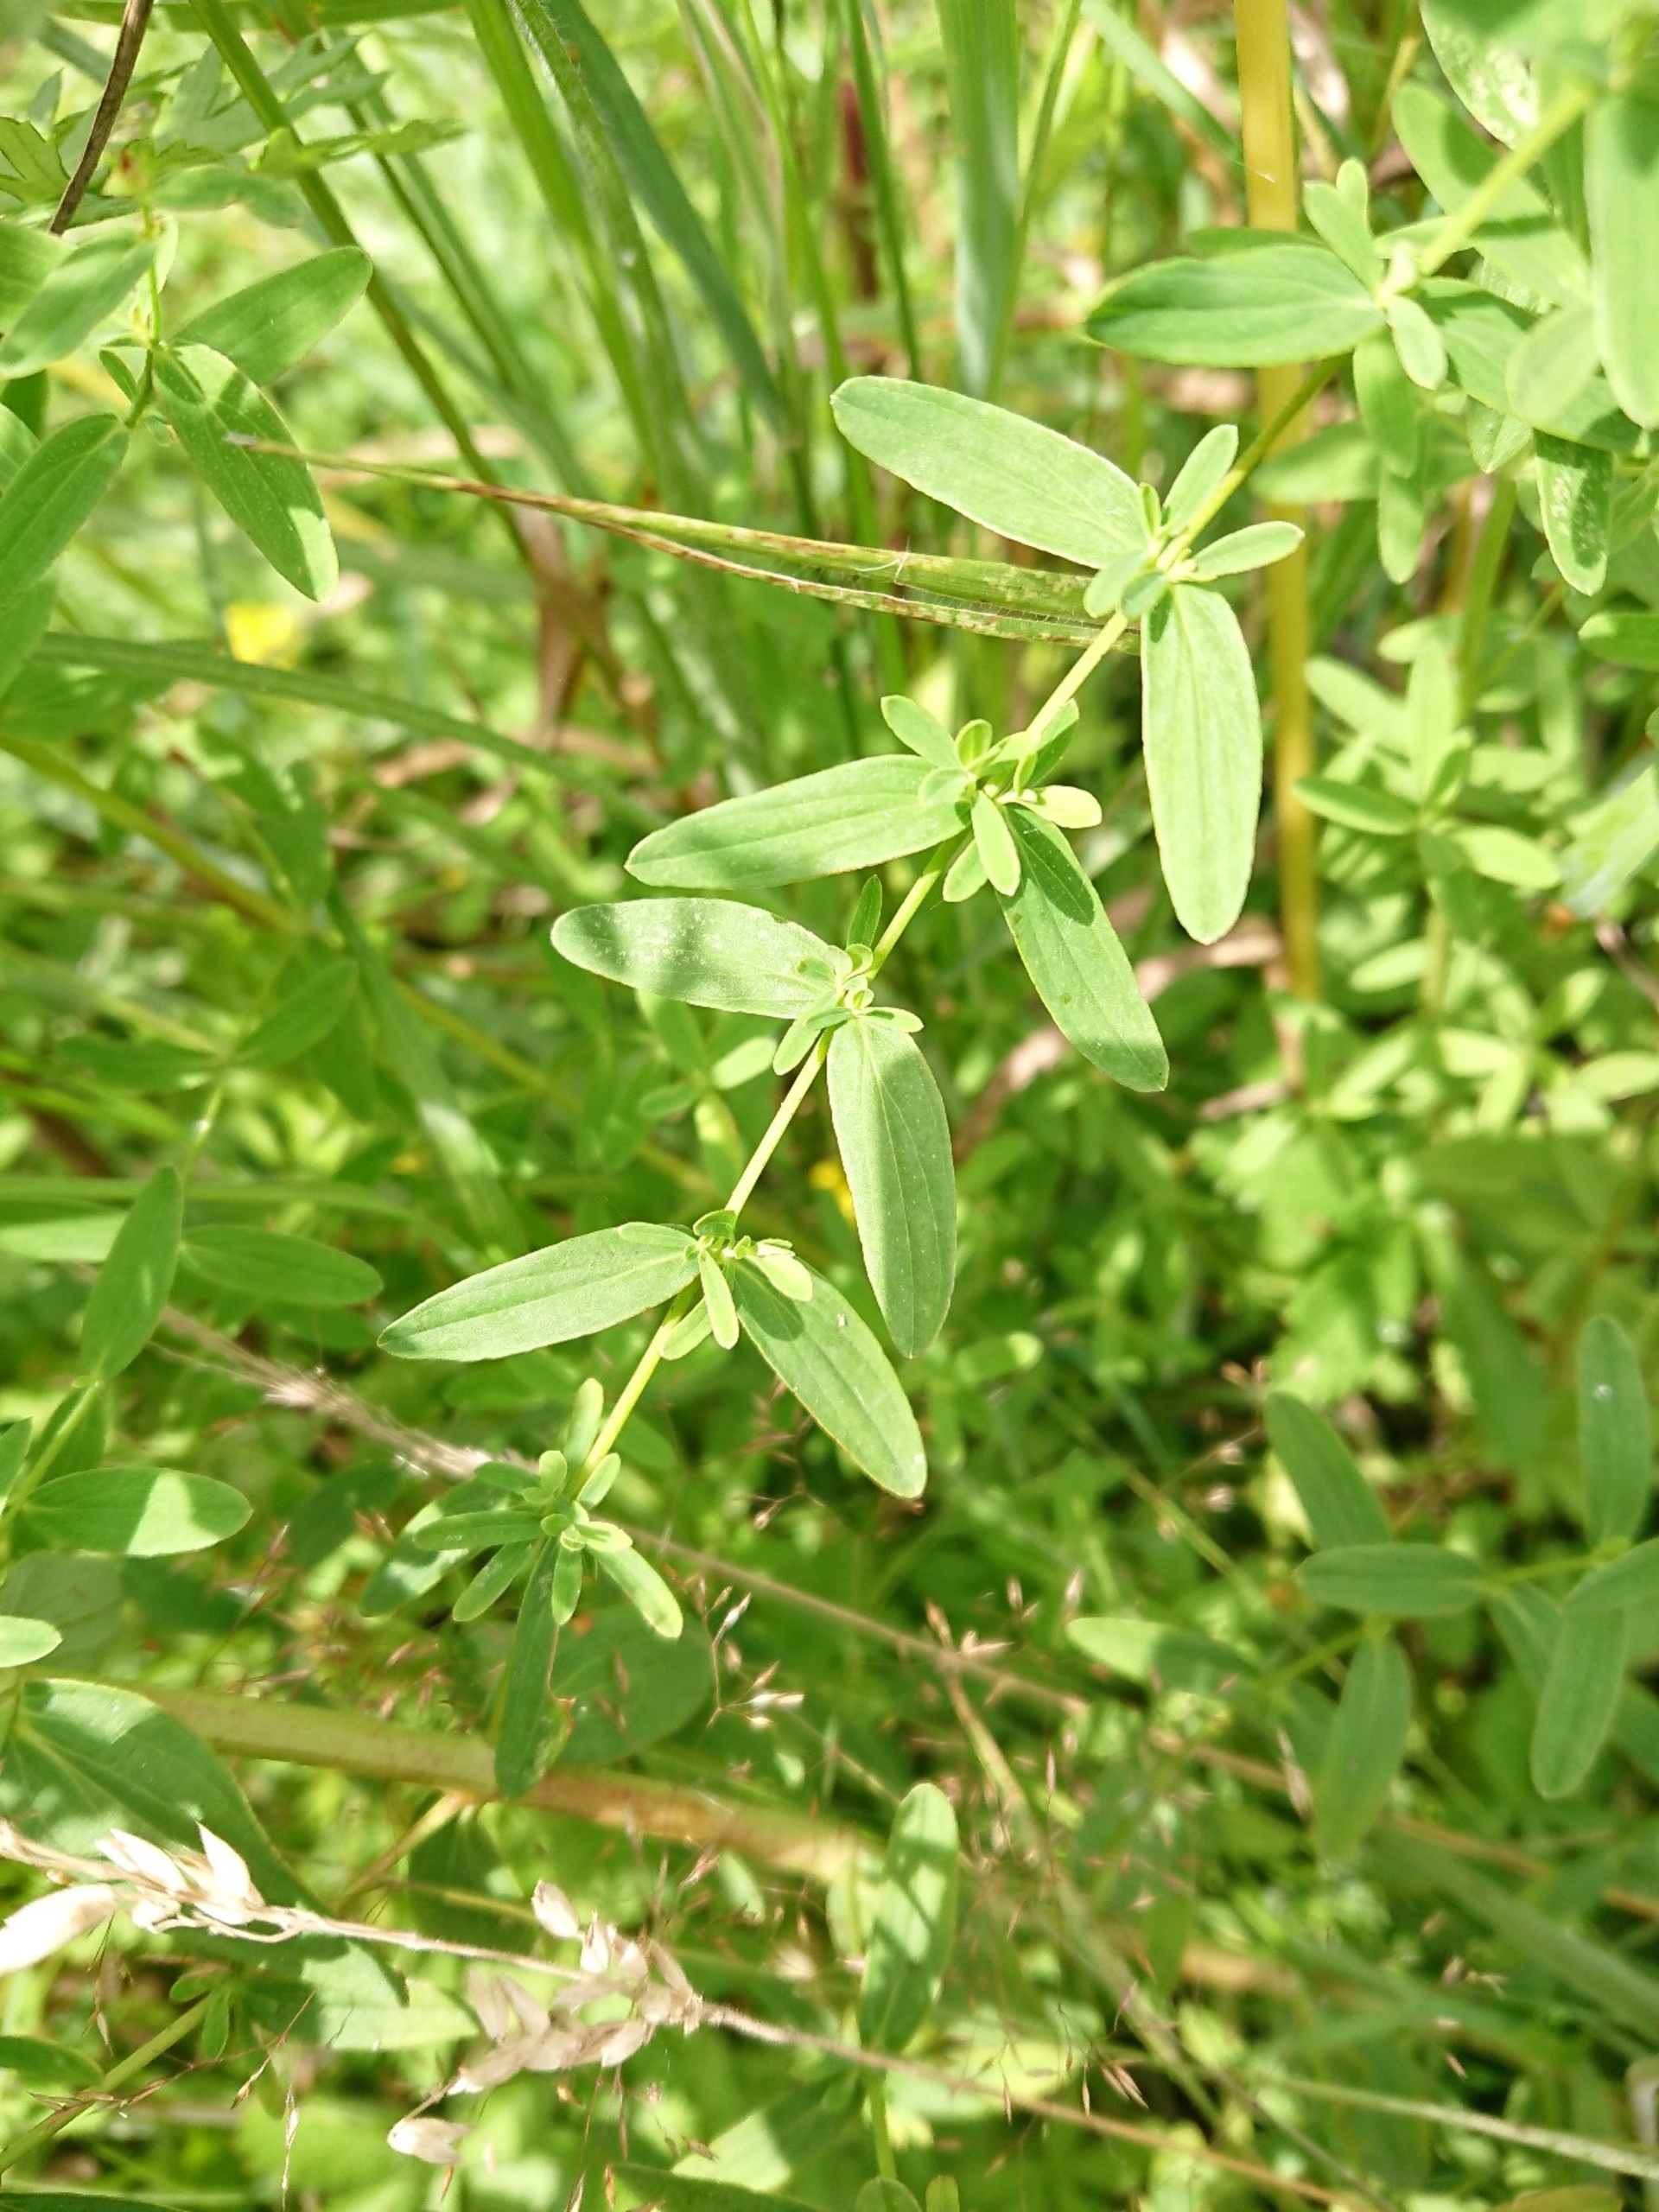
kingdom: Plantae
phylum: Tracheophyta
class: Magnoliopsida
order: Malpighiales
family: Hypericaceae
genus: Hypericum
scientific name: Hypericum perforatum
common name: Prikbladet perikon
